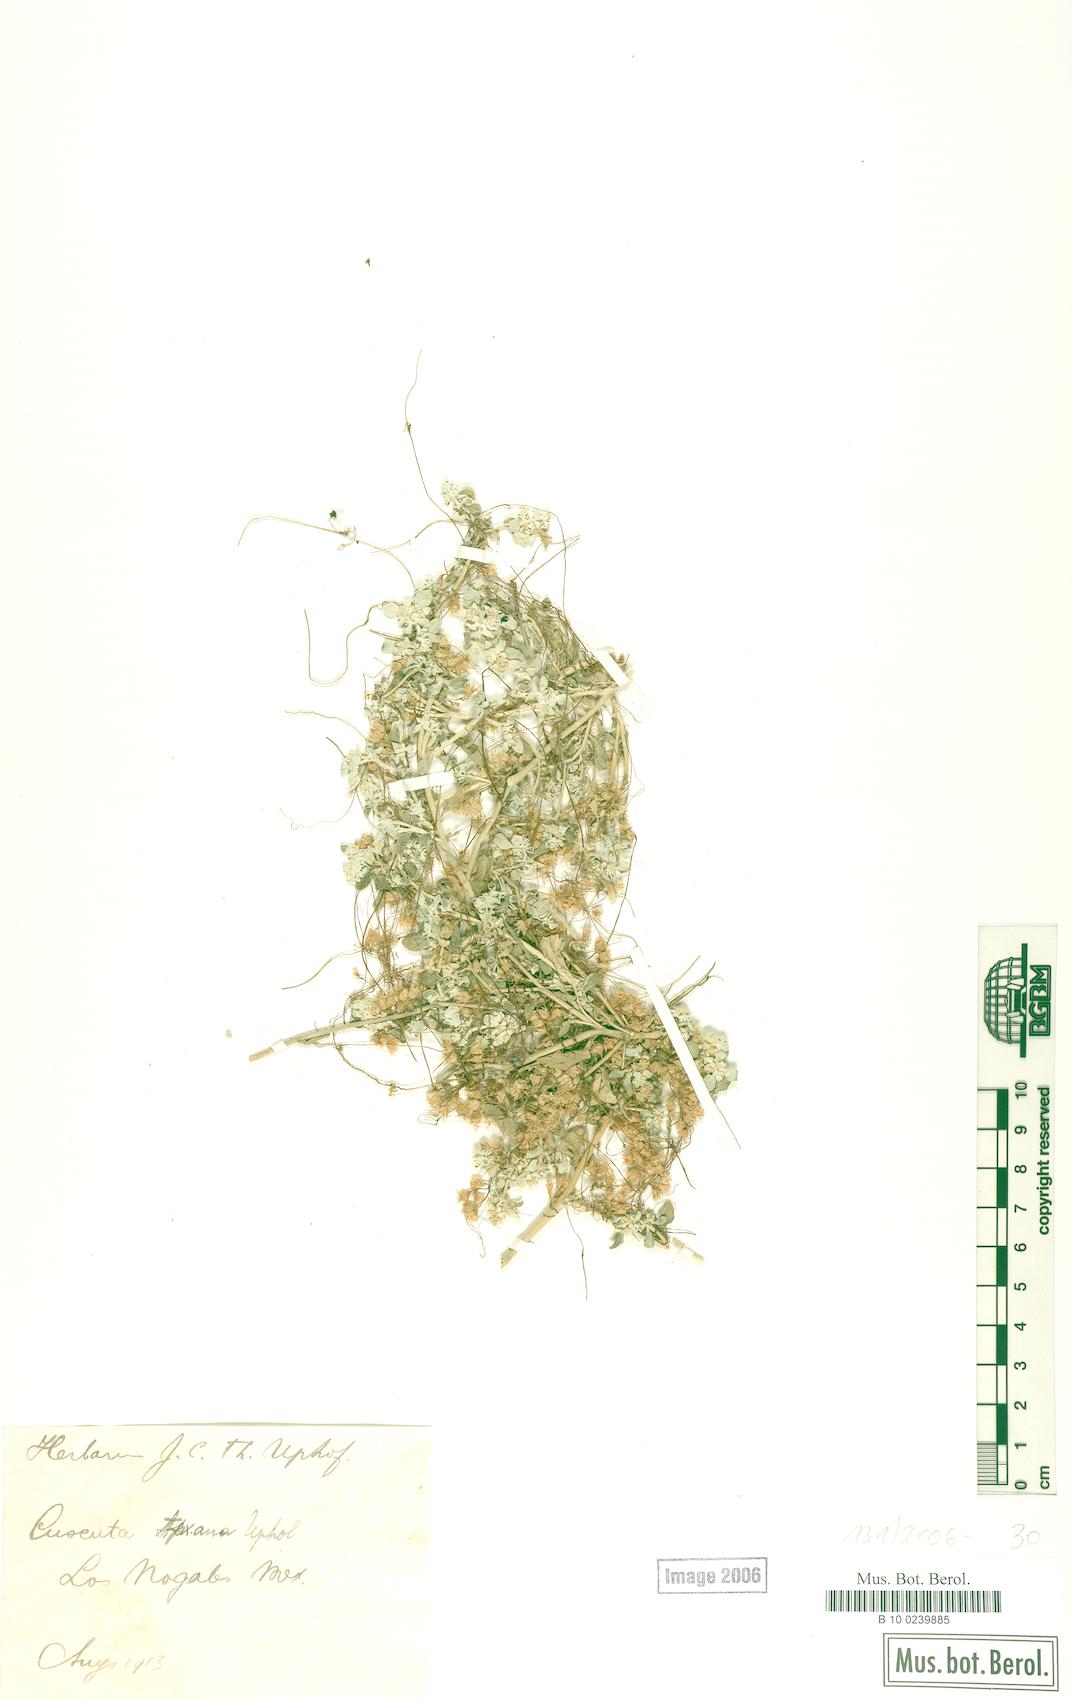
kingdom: Plantae
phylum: Tracheophyta
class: Magnoliopsida
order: Solanales
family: Convolvulaceae
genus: Cuscuta
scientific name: Cuscuta
